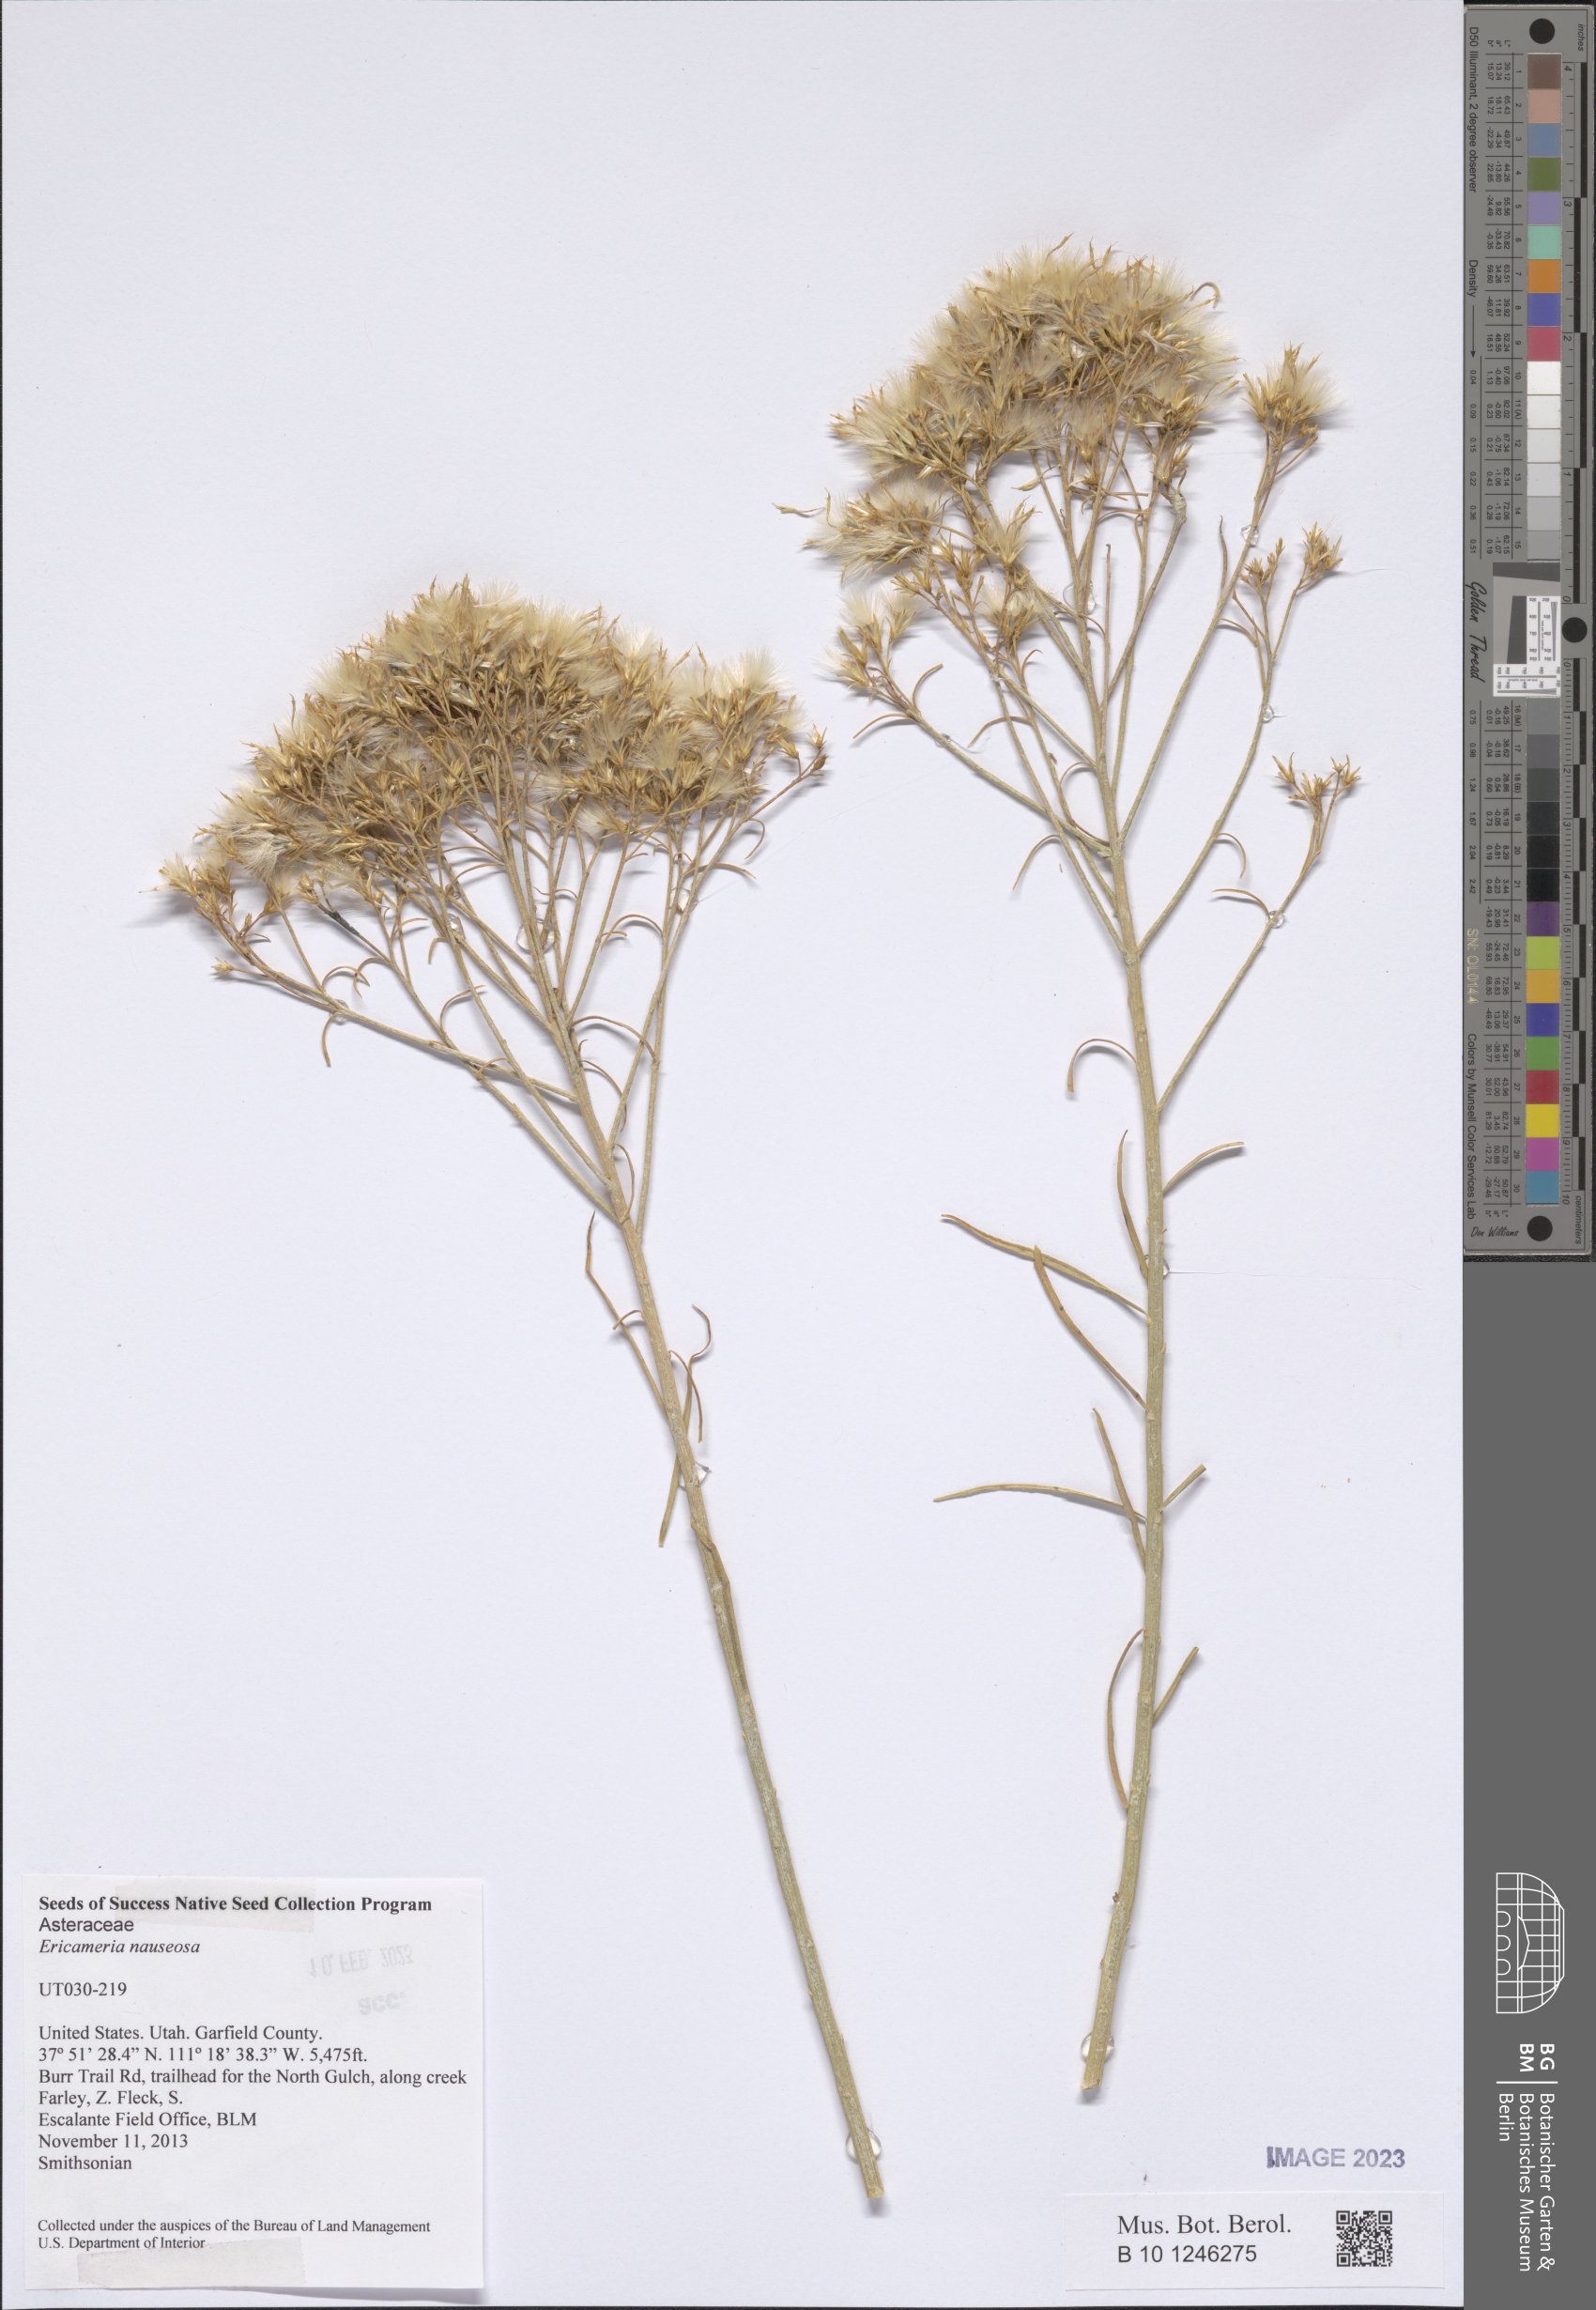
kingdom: Plantae
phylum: Tracheophyta
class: Magnoliopsida
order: Asterales
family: Asteraceae
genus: Ericameria
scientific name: Ericameria nauseosa
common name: Rubber rabbitbrush
